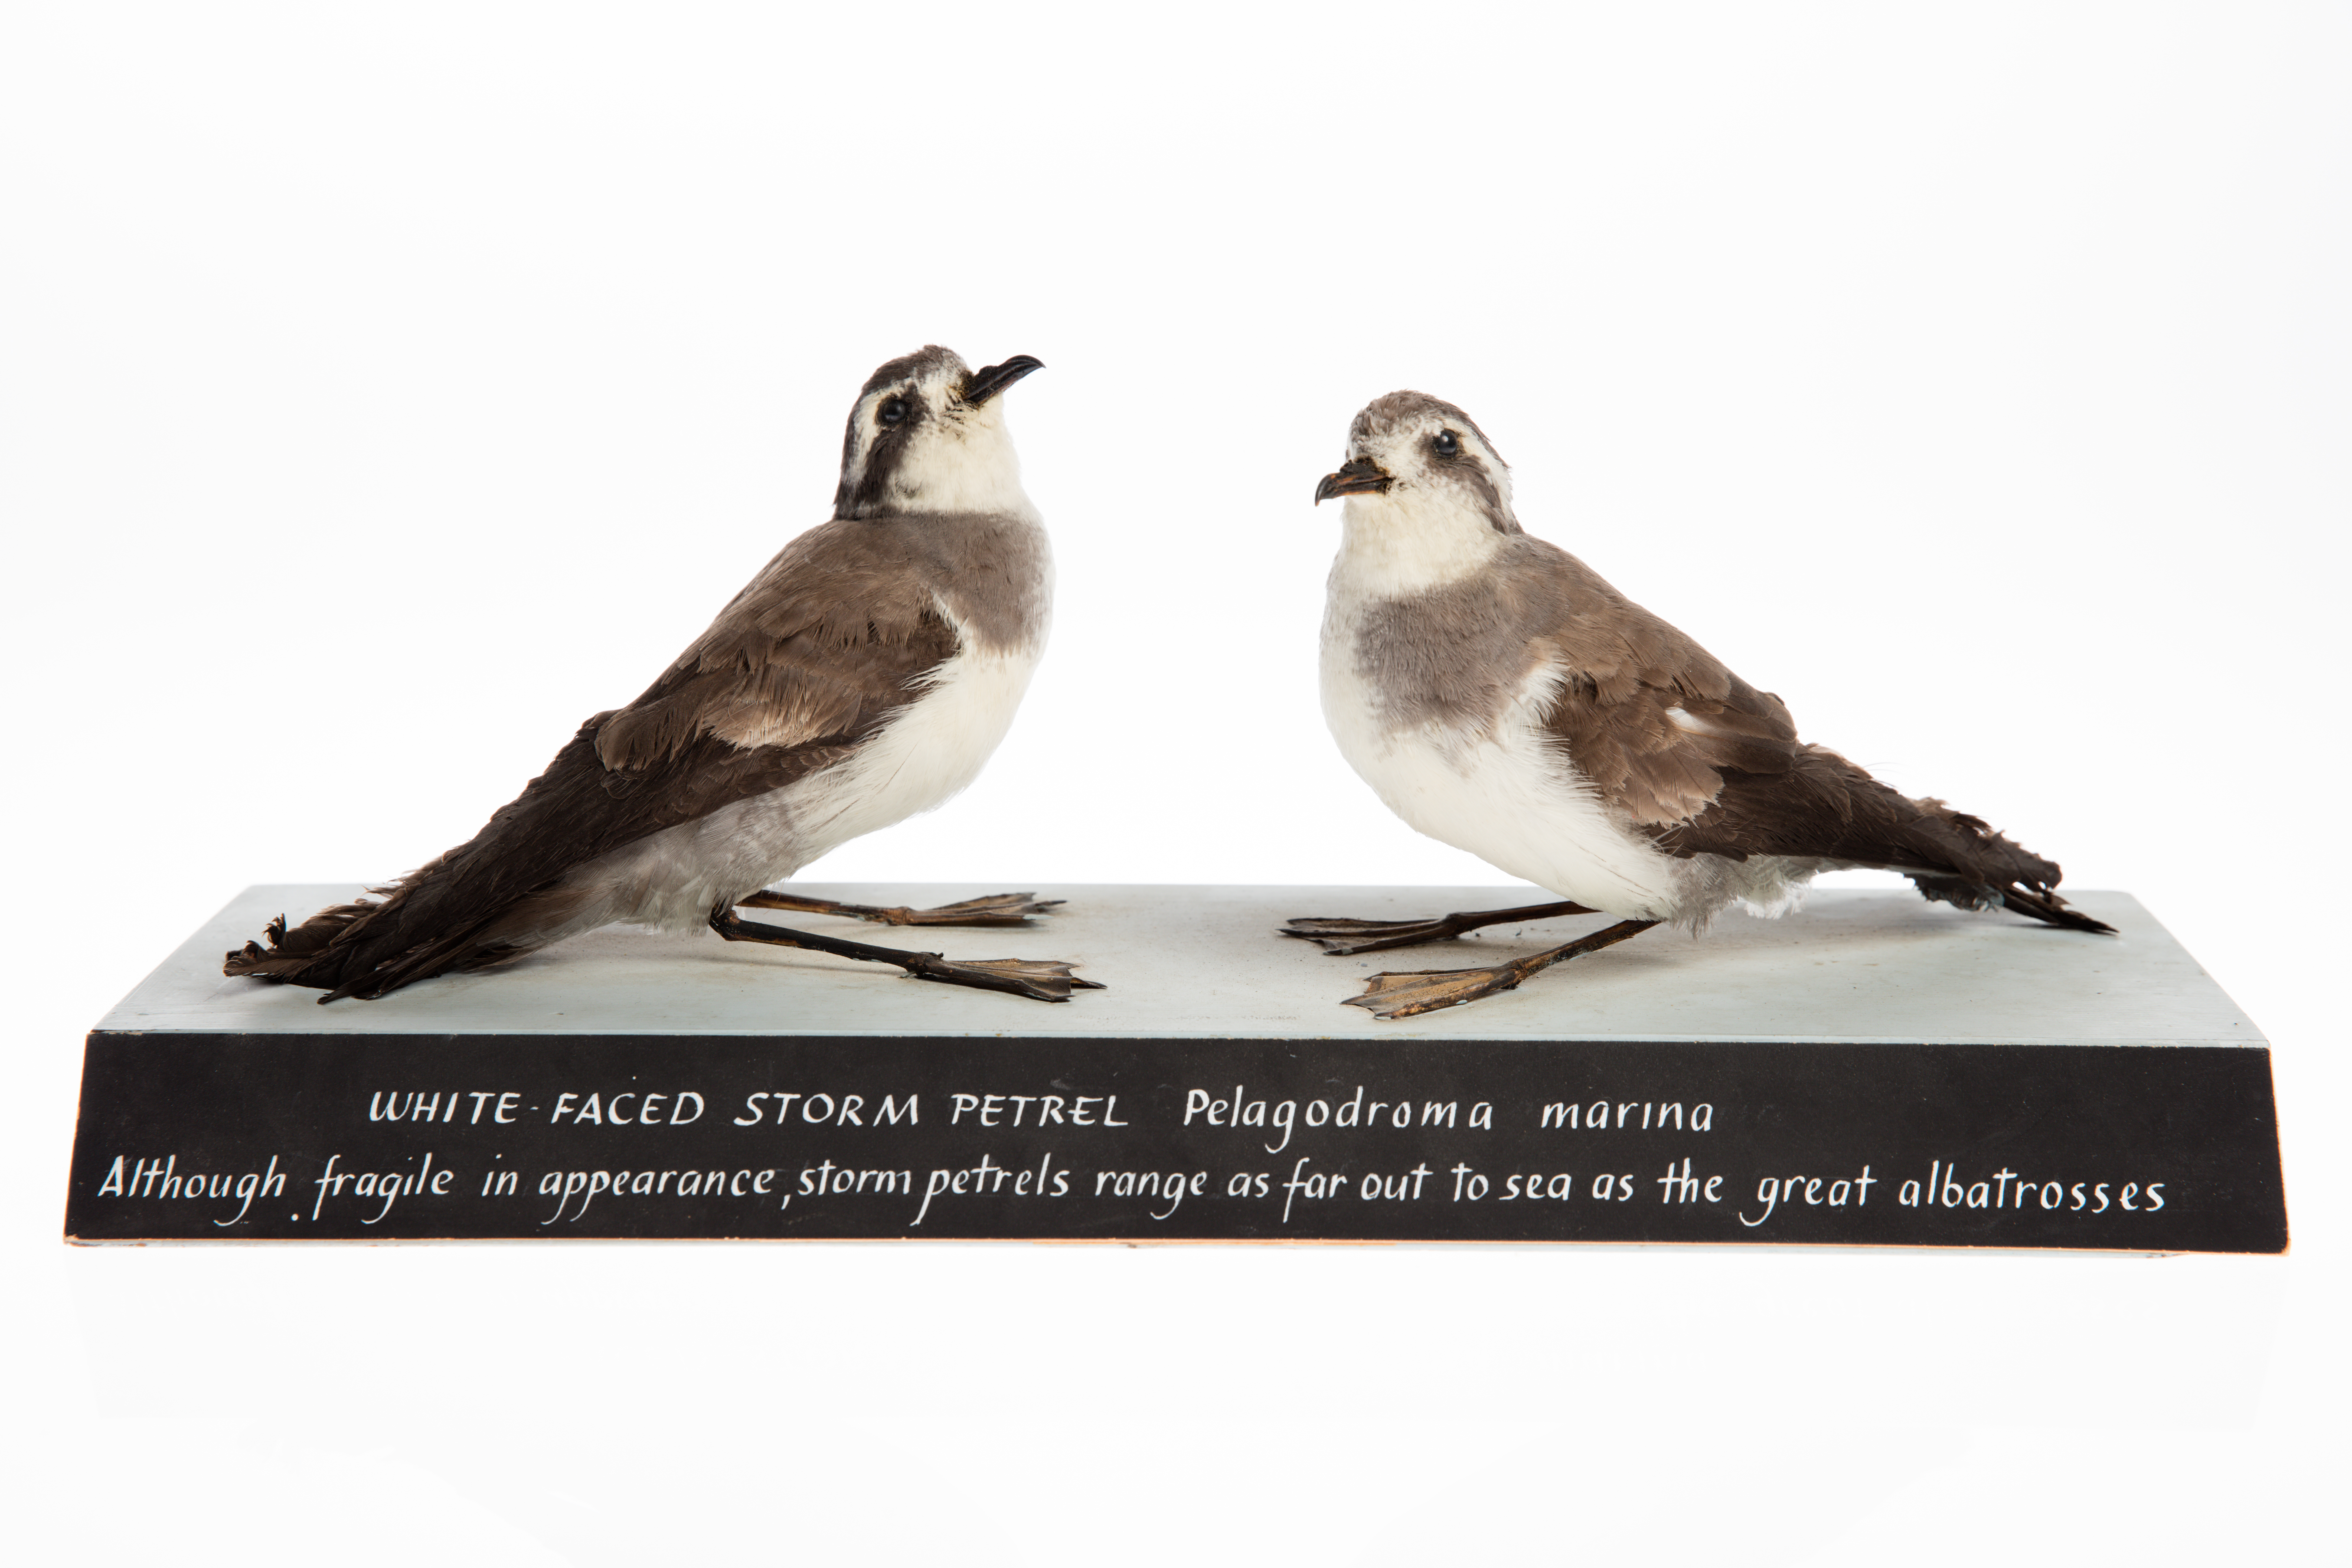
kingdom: Animalia
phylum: Chordata
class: Aves
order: Procellariiformes
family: Hydrobatidae
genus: Pelagodroma
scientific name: Pelagodroma marina
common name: White-faced storm-petrel
